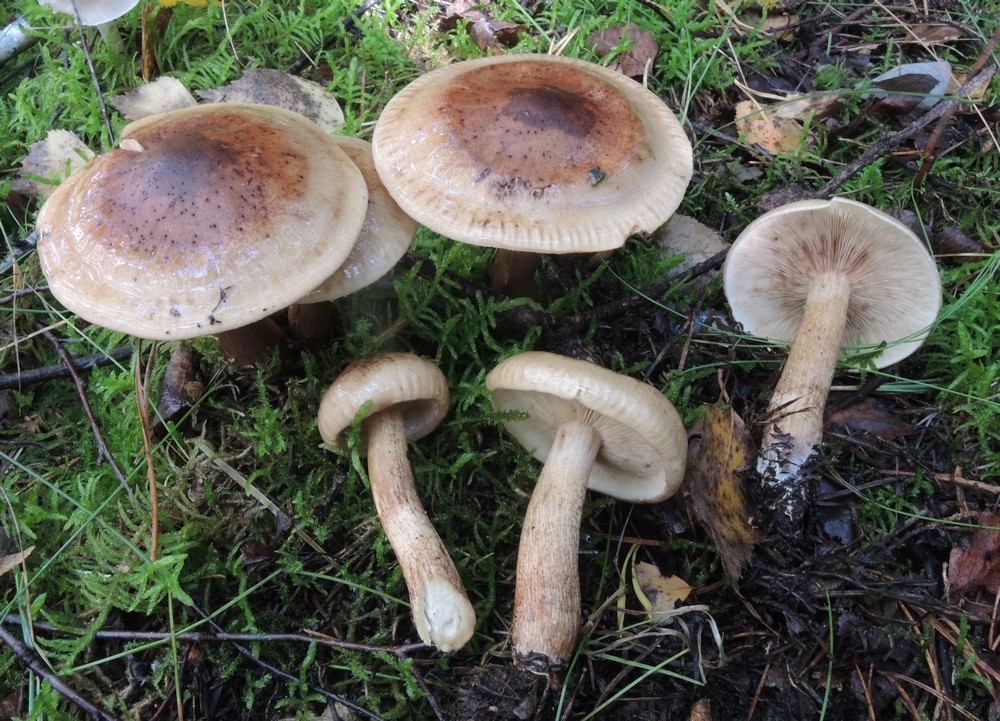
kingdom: Fungi
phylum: Basidiomycota
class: Agaricomycetes
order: Agaricales
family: Tricholomataceae
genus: Tricholoma
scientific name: Tricholoma fulvum
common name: birke-ridderhat
